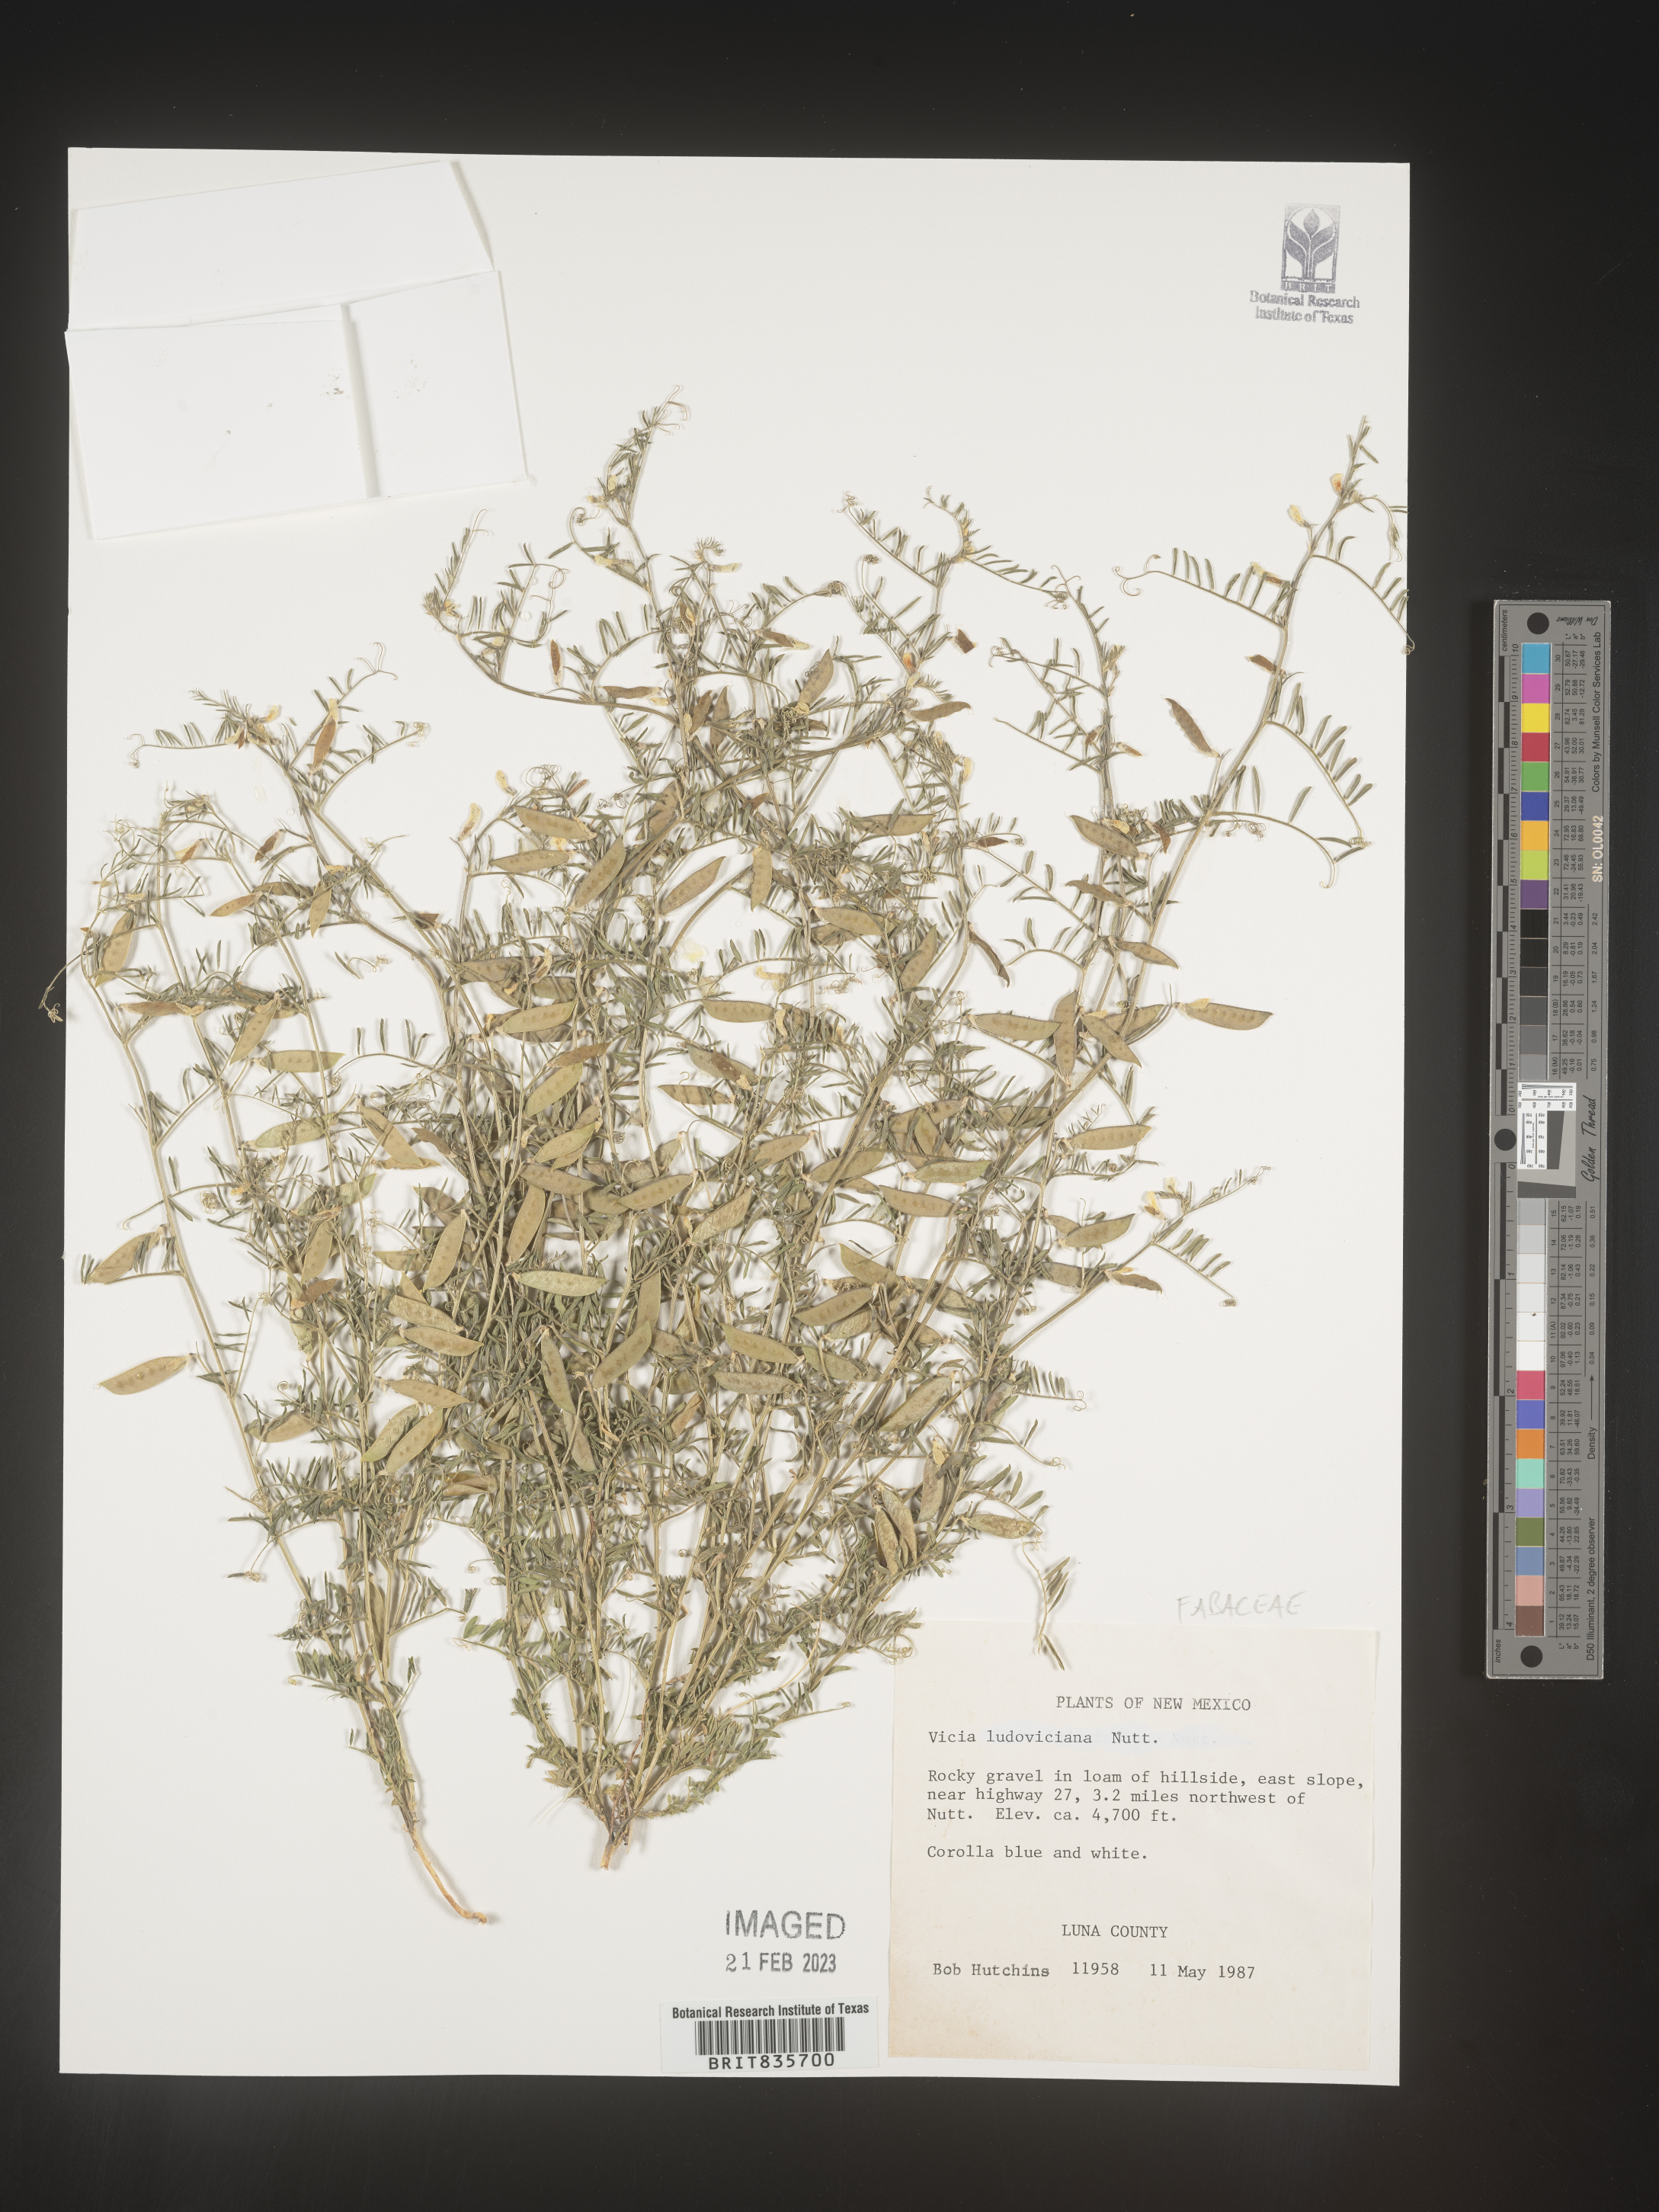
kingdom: Plantae
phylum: Tracheophyta
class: Magnoliopsida
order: Fabales
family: Fabaceae
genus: Vicia
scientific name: Vicia ludoviciana
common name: Louisiana vetch
